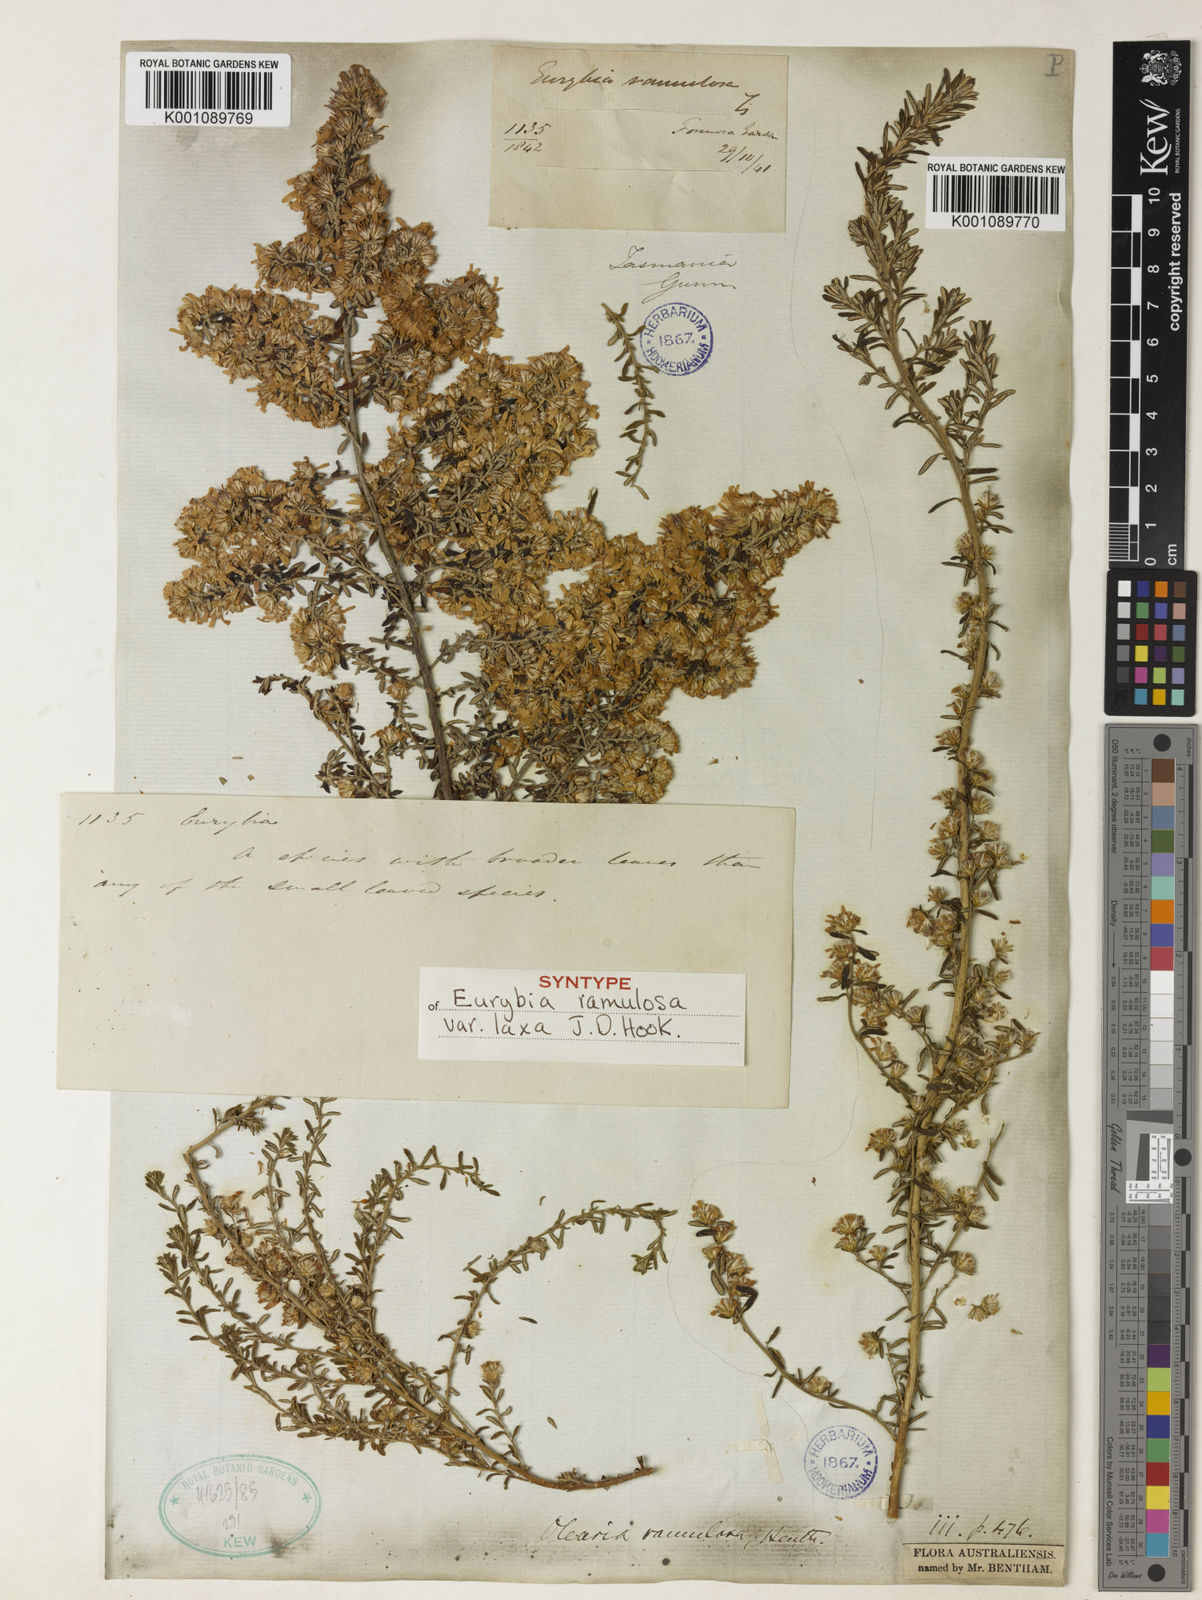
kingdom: Plantae
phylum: Tracheophyta
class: Magnoliopsida
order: Asterales
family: Asteraceae
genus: Olearia
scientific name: Olearia ramulosa
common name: Twiggy daisybush
